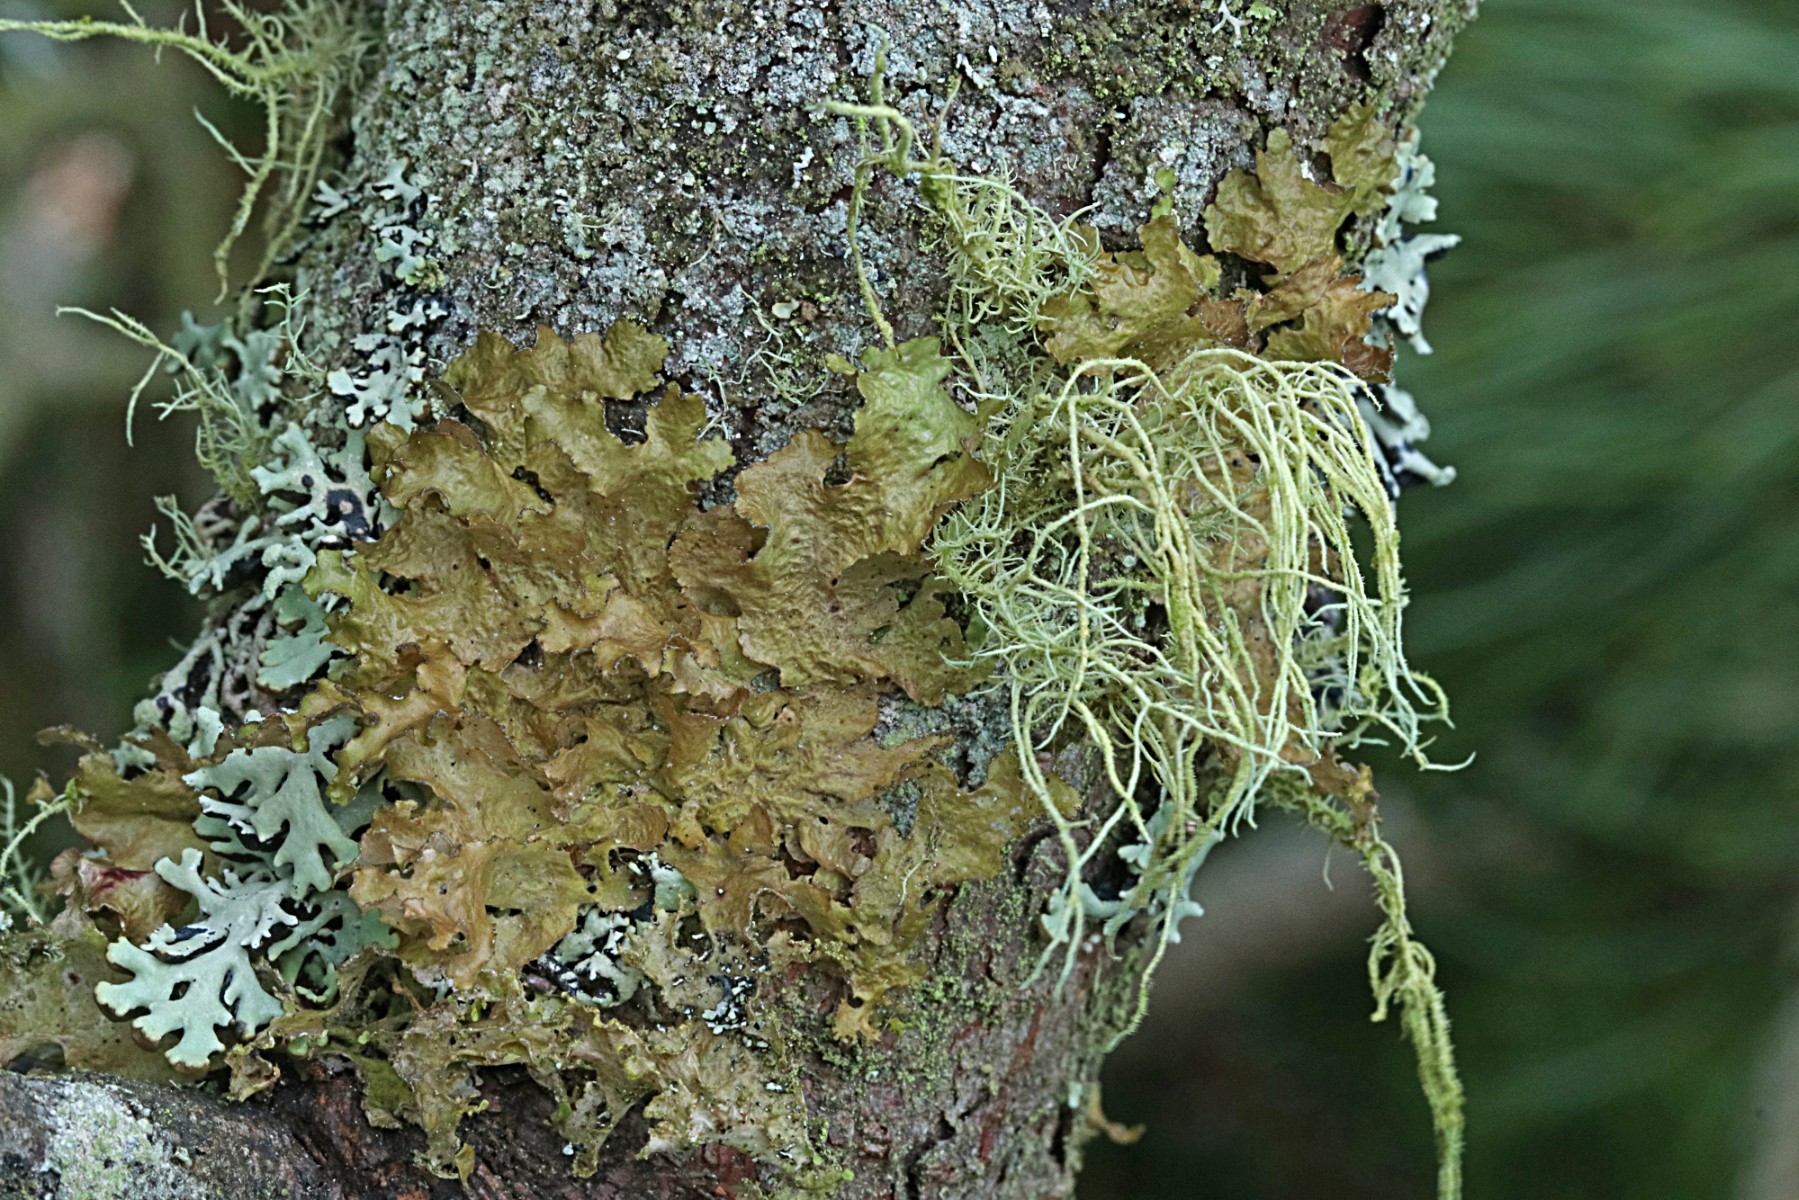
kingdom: Fungi
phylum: Ascomycota
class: Lecanoromycetes
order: Lecanorales
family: Parmeliaceae
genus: Melanelixia
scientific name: Melanelixia subaurifera
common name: guldpudret skållav
